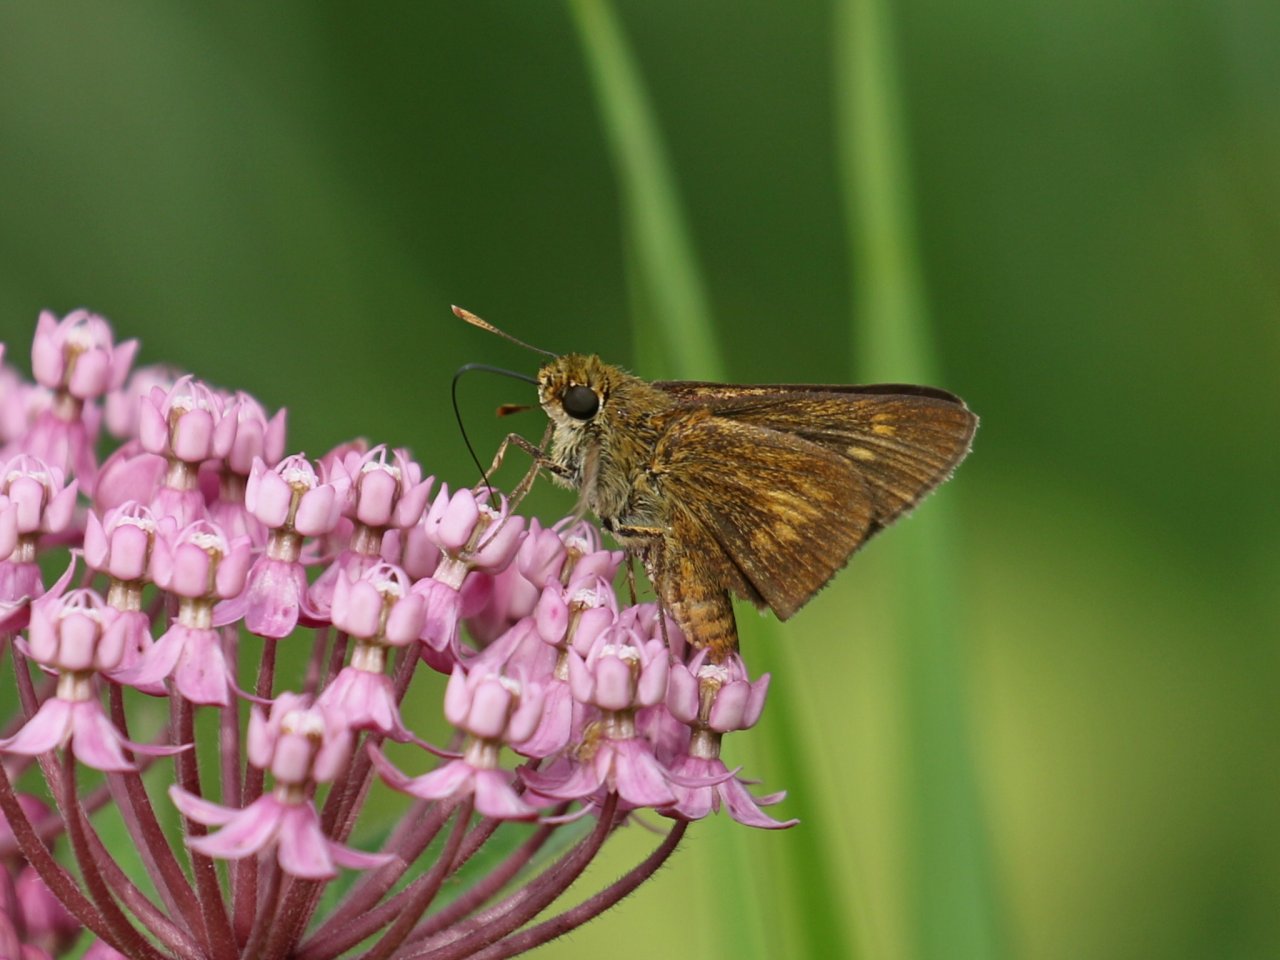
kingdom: Animalia
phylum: Arthropoda
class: Insecta
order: Lepidoptera
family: Hesperiidae
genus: Euphyes
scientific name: Euphyes conspicua
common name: Black Dash
